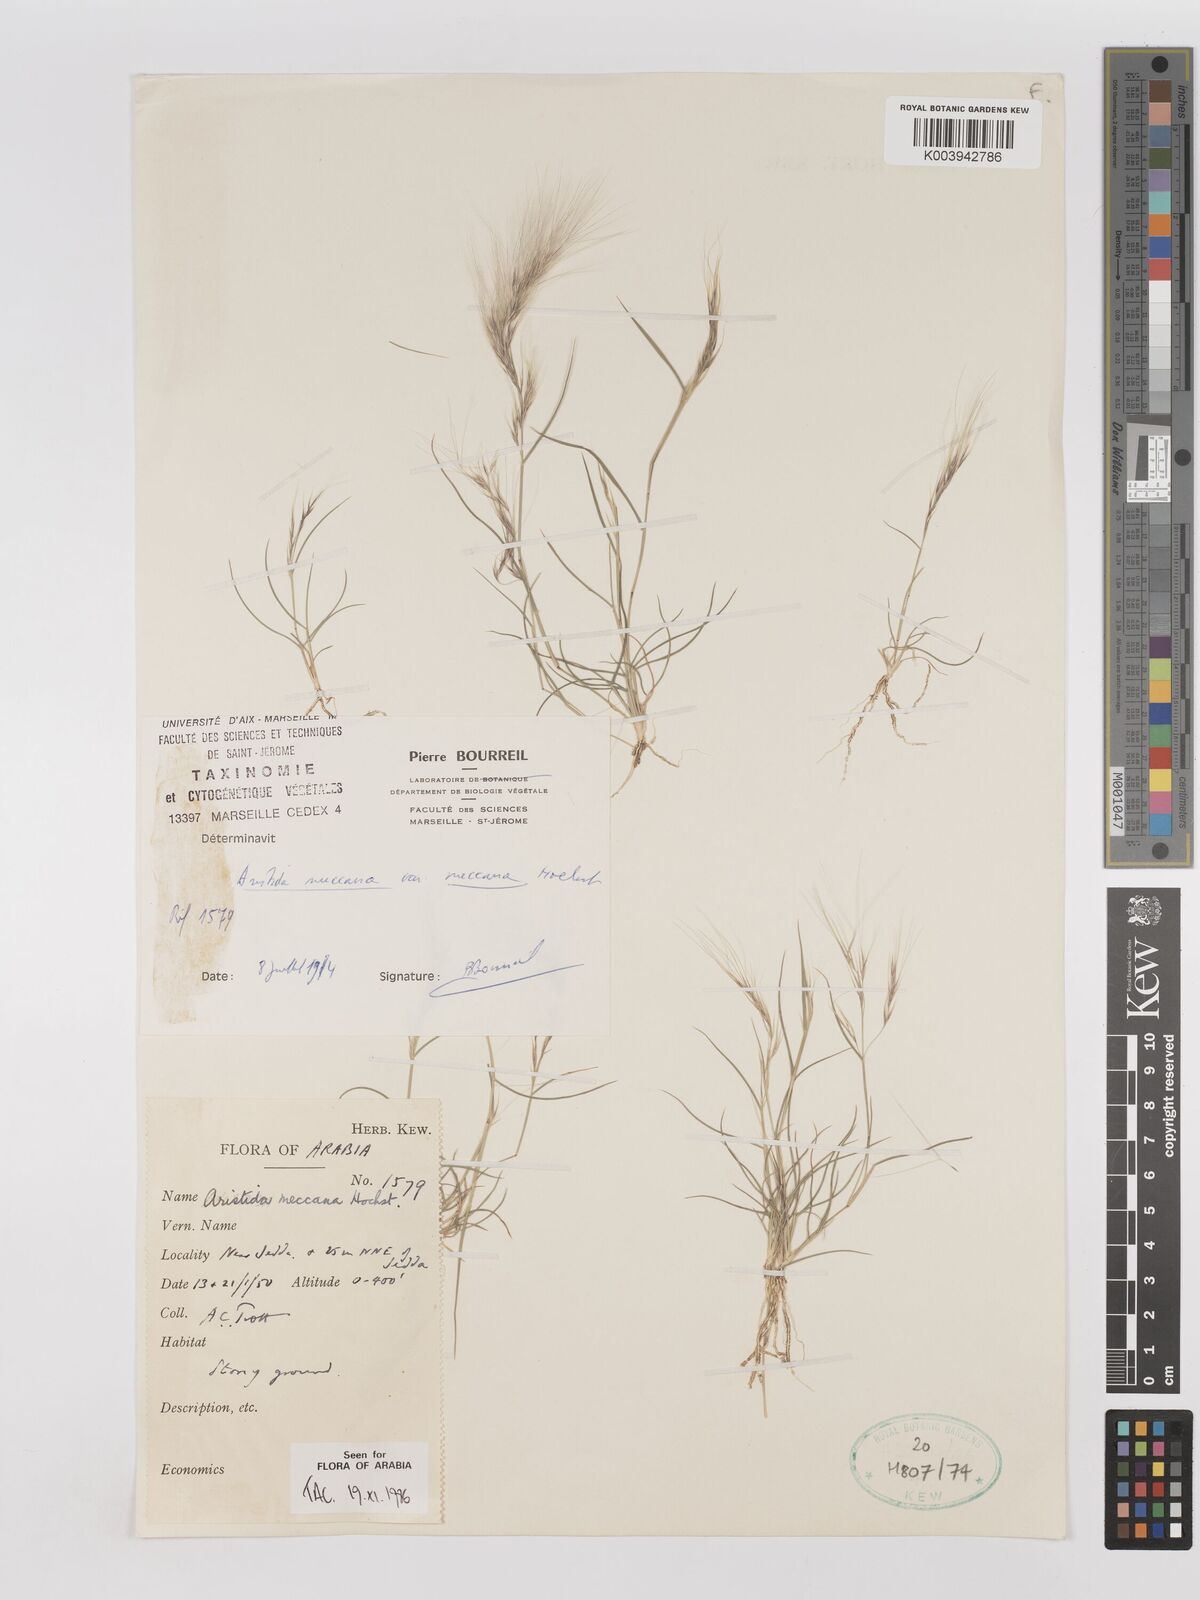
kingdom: Plantae
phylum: Tracheophyta
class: Liliopsida
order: Poales
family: Poaceae
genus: Aristida
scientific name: Aristida mutabilis
